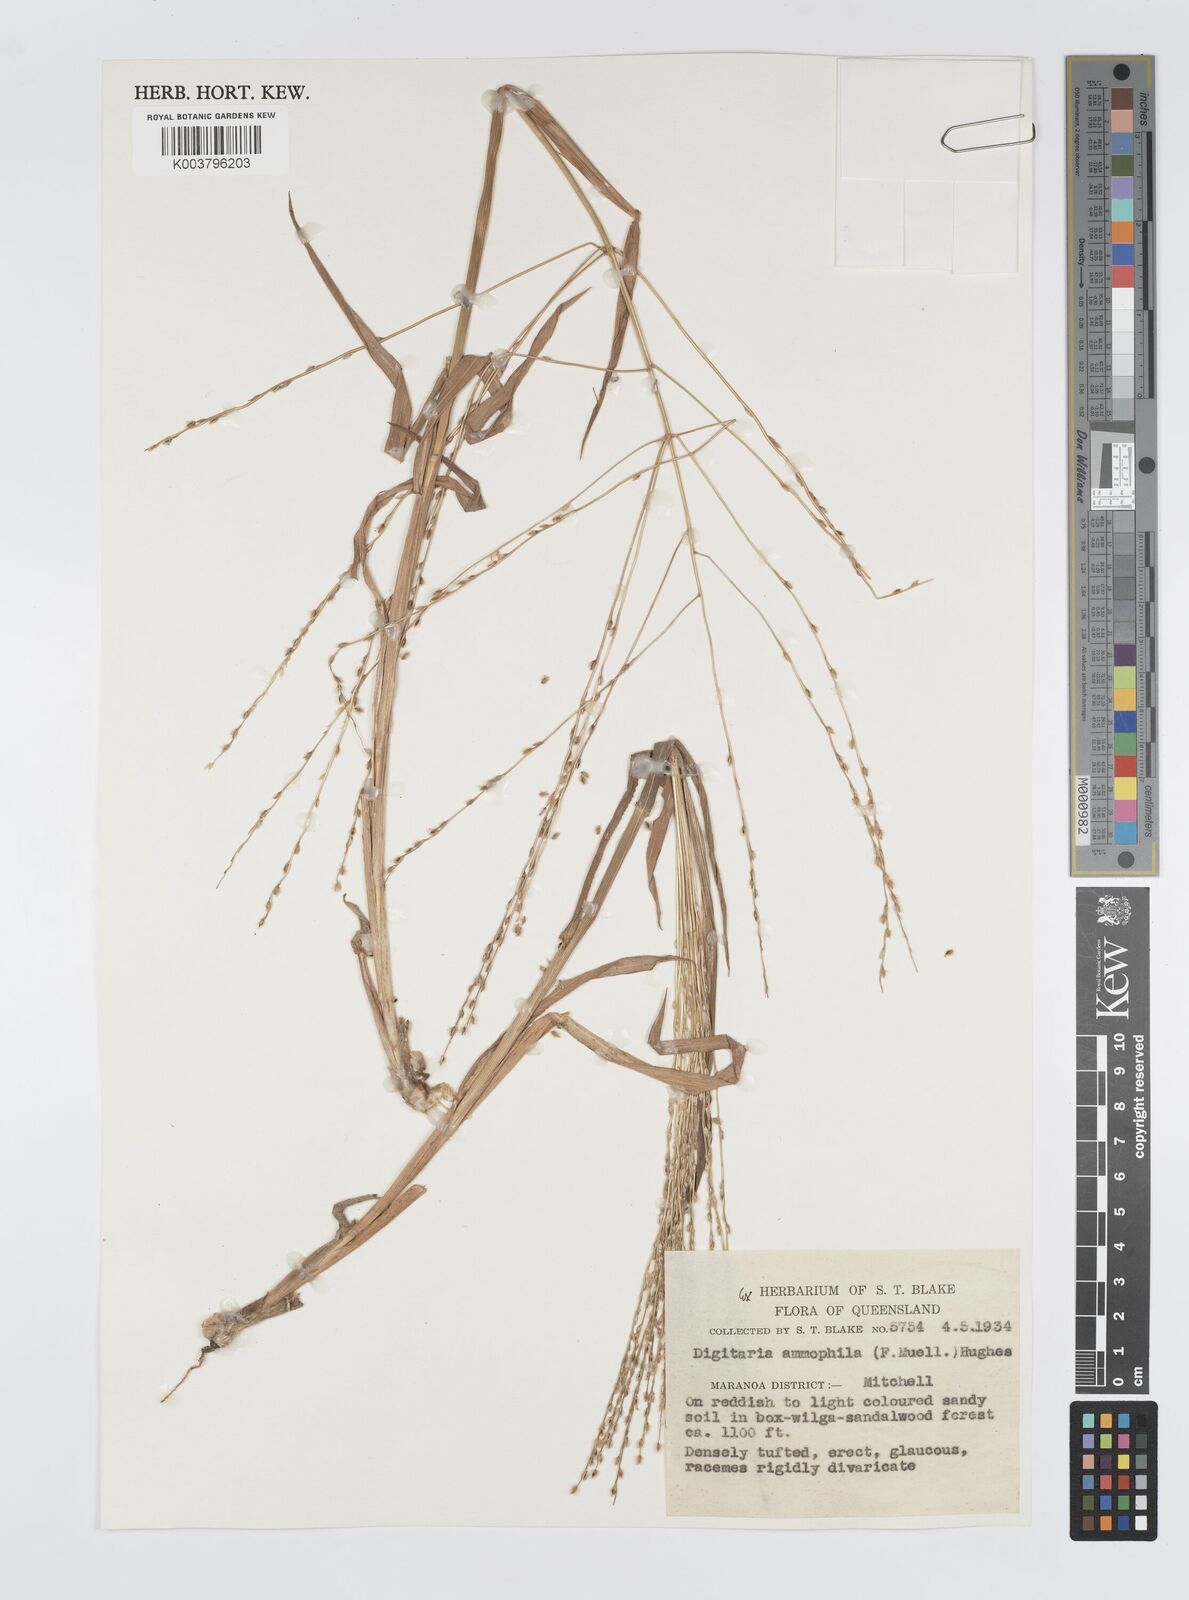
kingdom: Plantae
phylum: Tracheophyta
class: Liliopsida
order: Poales
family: Poaceae
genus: Digitaria
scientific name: Digitaria ammophila
